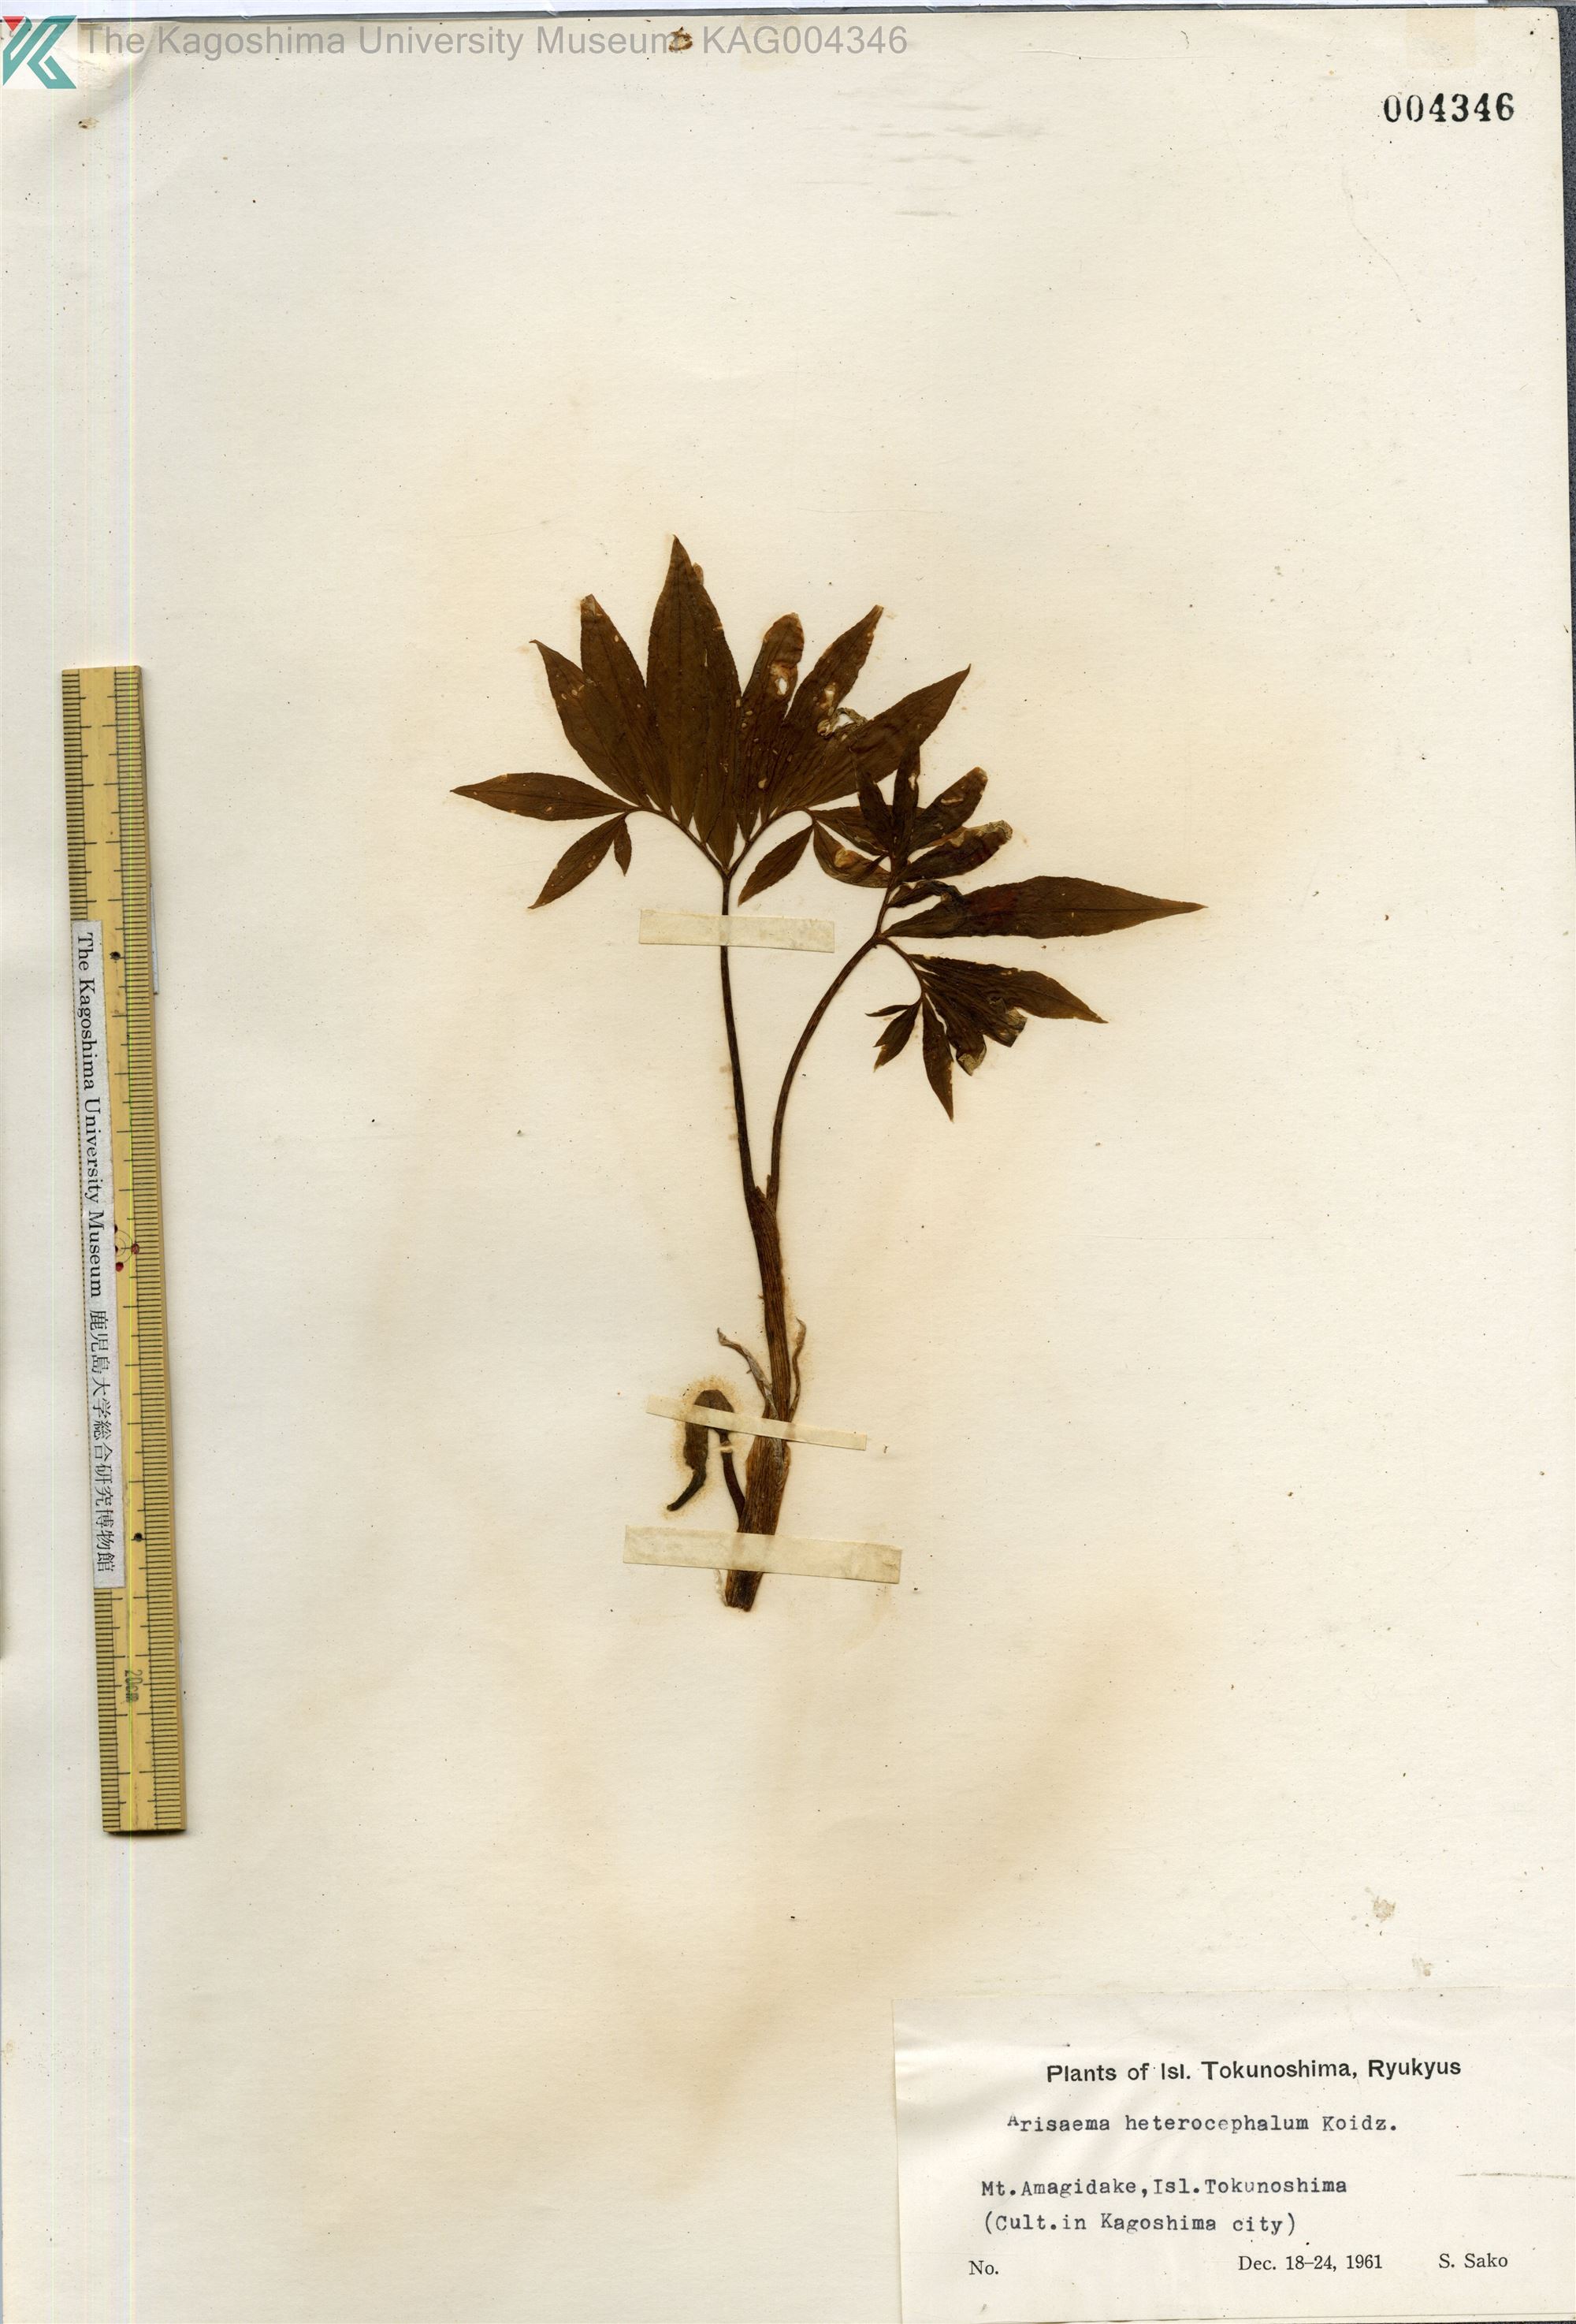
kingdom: Plantae
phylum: Tracheophyta
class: Liliopsida
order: Alismatales
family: Araceae
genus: Arisaema
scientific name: Arisaema heterocephalum
